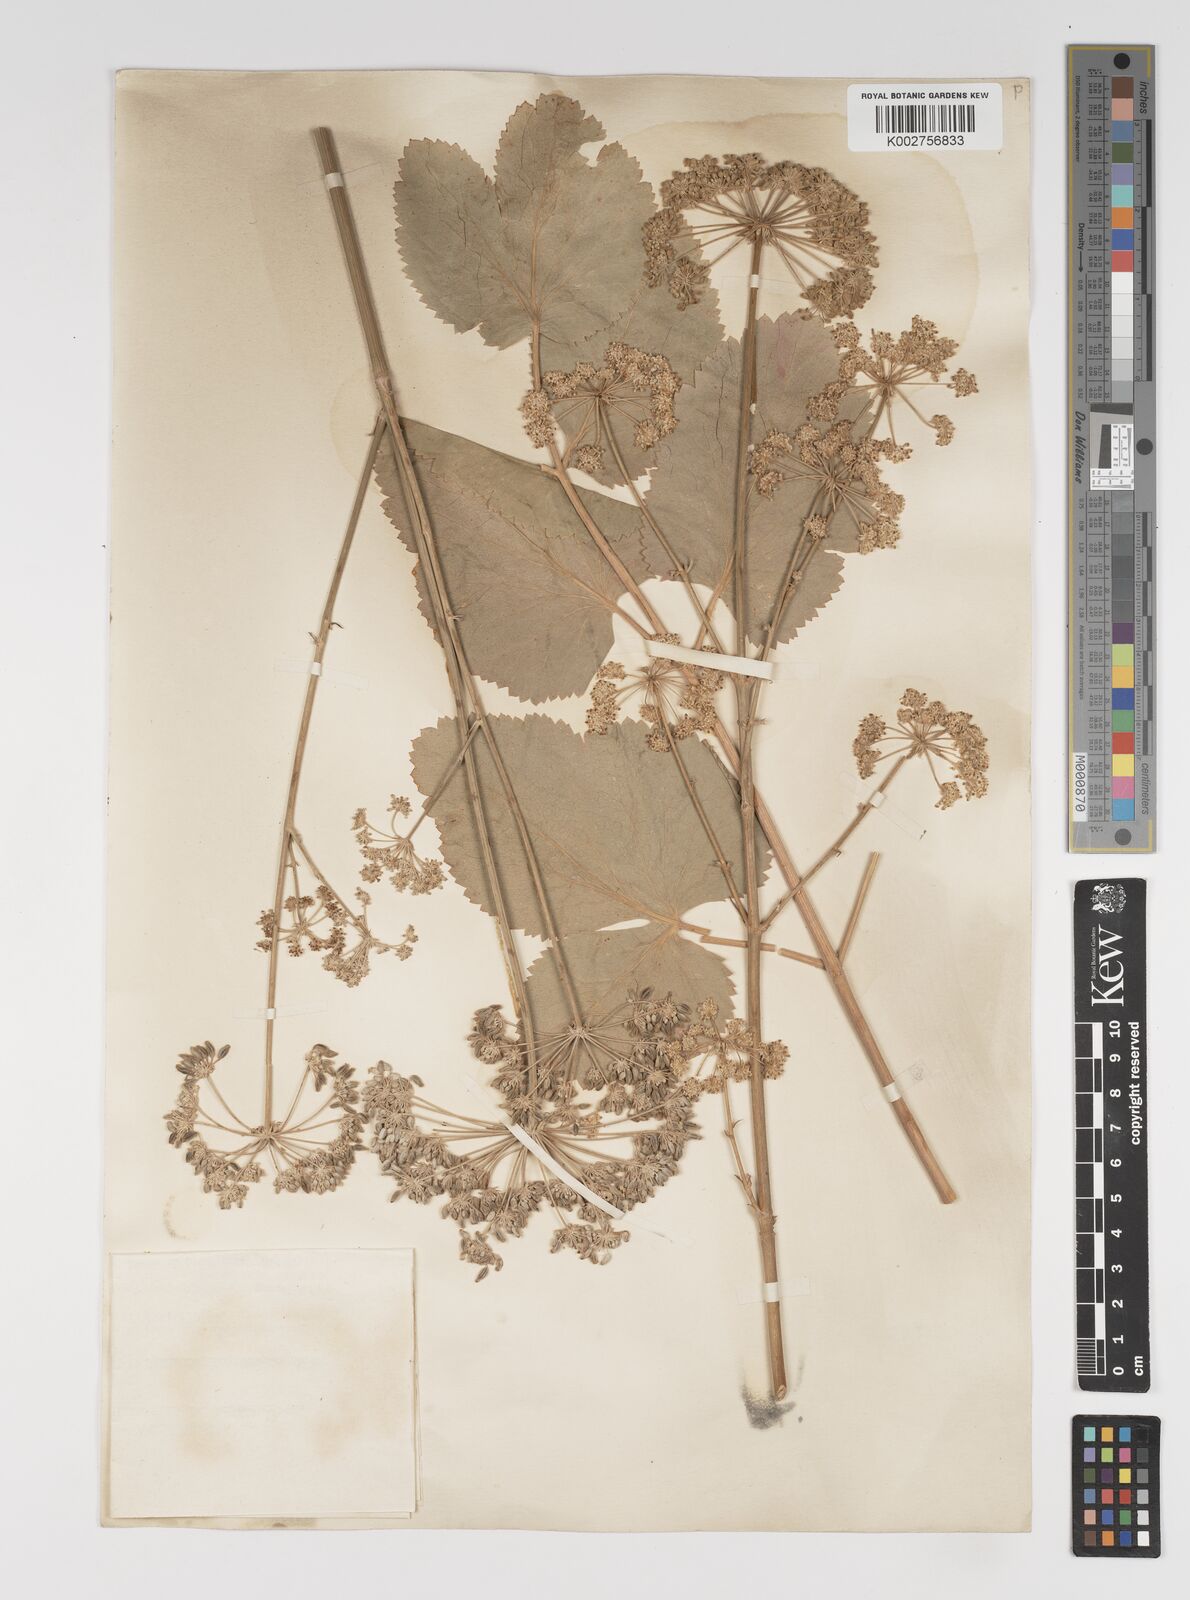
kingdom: Plantae
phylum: Tracheophyta
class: Magnoliopsida
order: Apiales
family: Apiaceae
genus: Mediasia
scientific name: Mediasia macrophylla
